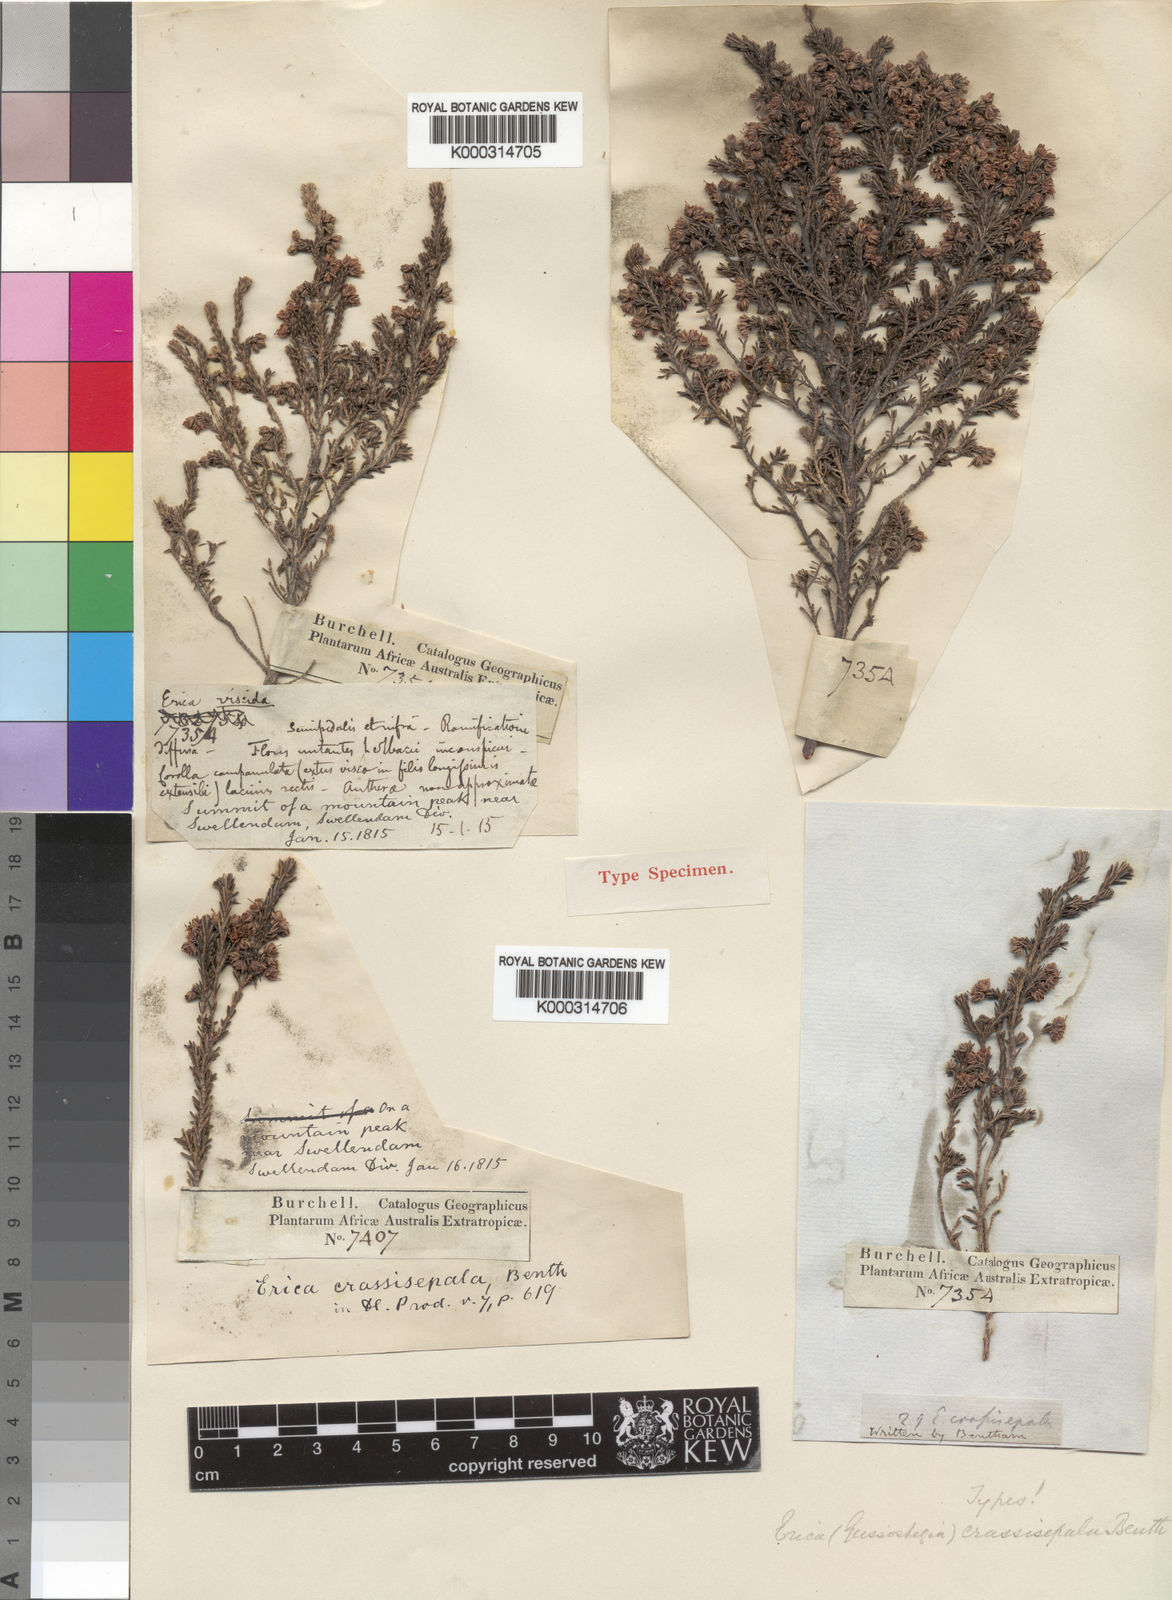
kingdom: Plantae
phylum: Tracheophyta
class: Magnoliopsida
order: Ericales
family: Ericaceae
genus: Erica
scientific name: Erica crassisepala
